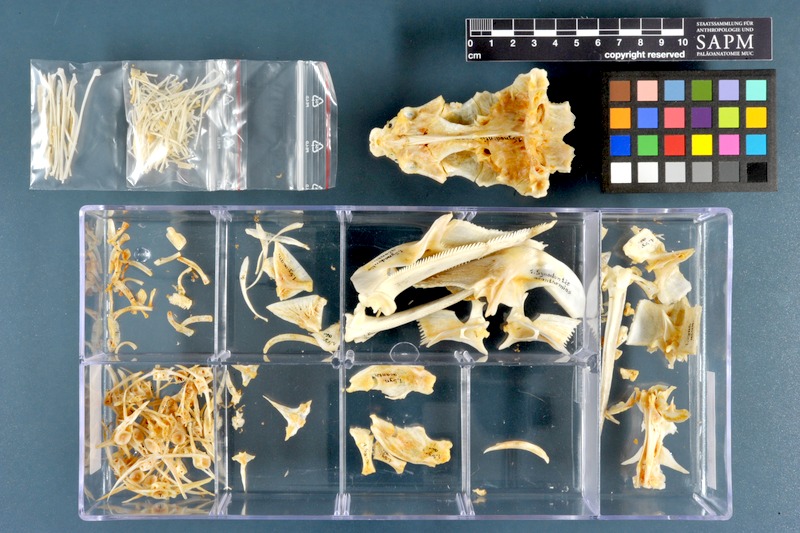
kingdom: Animalia
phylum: Chordata
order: Siluriformes
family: Mochokidae
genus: Synodontis
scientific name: Synodontis acanthomias
